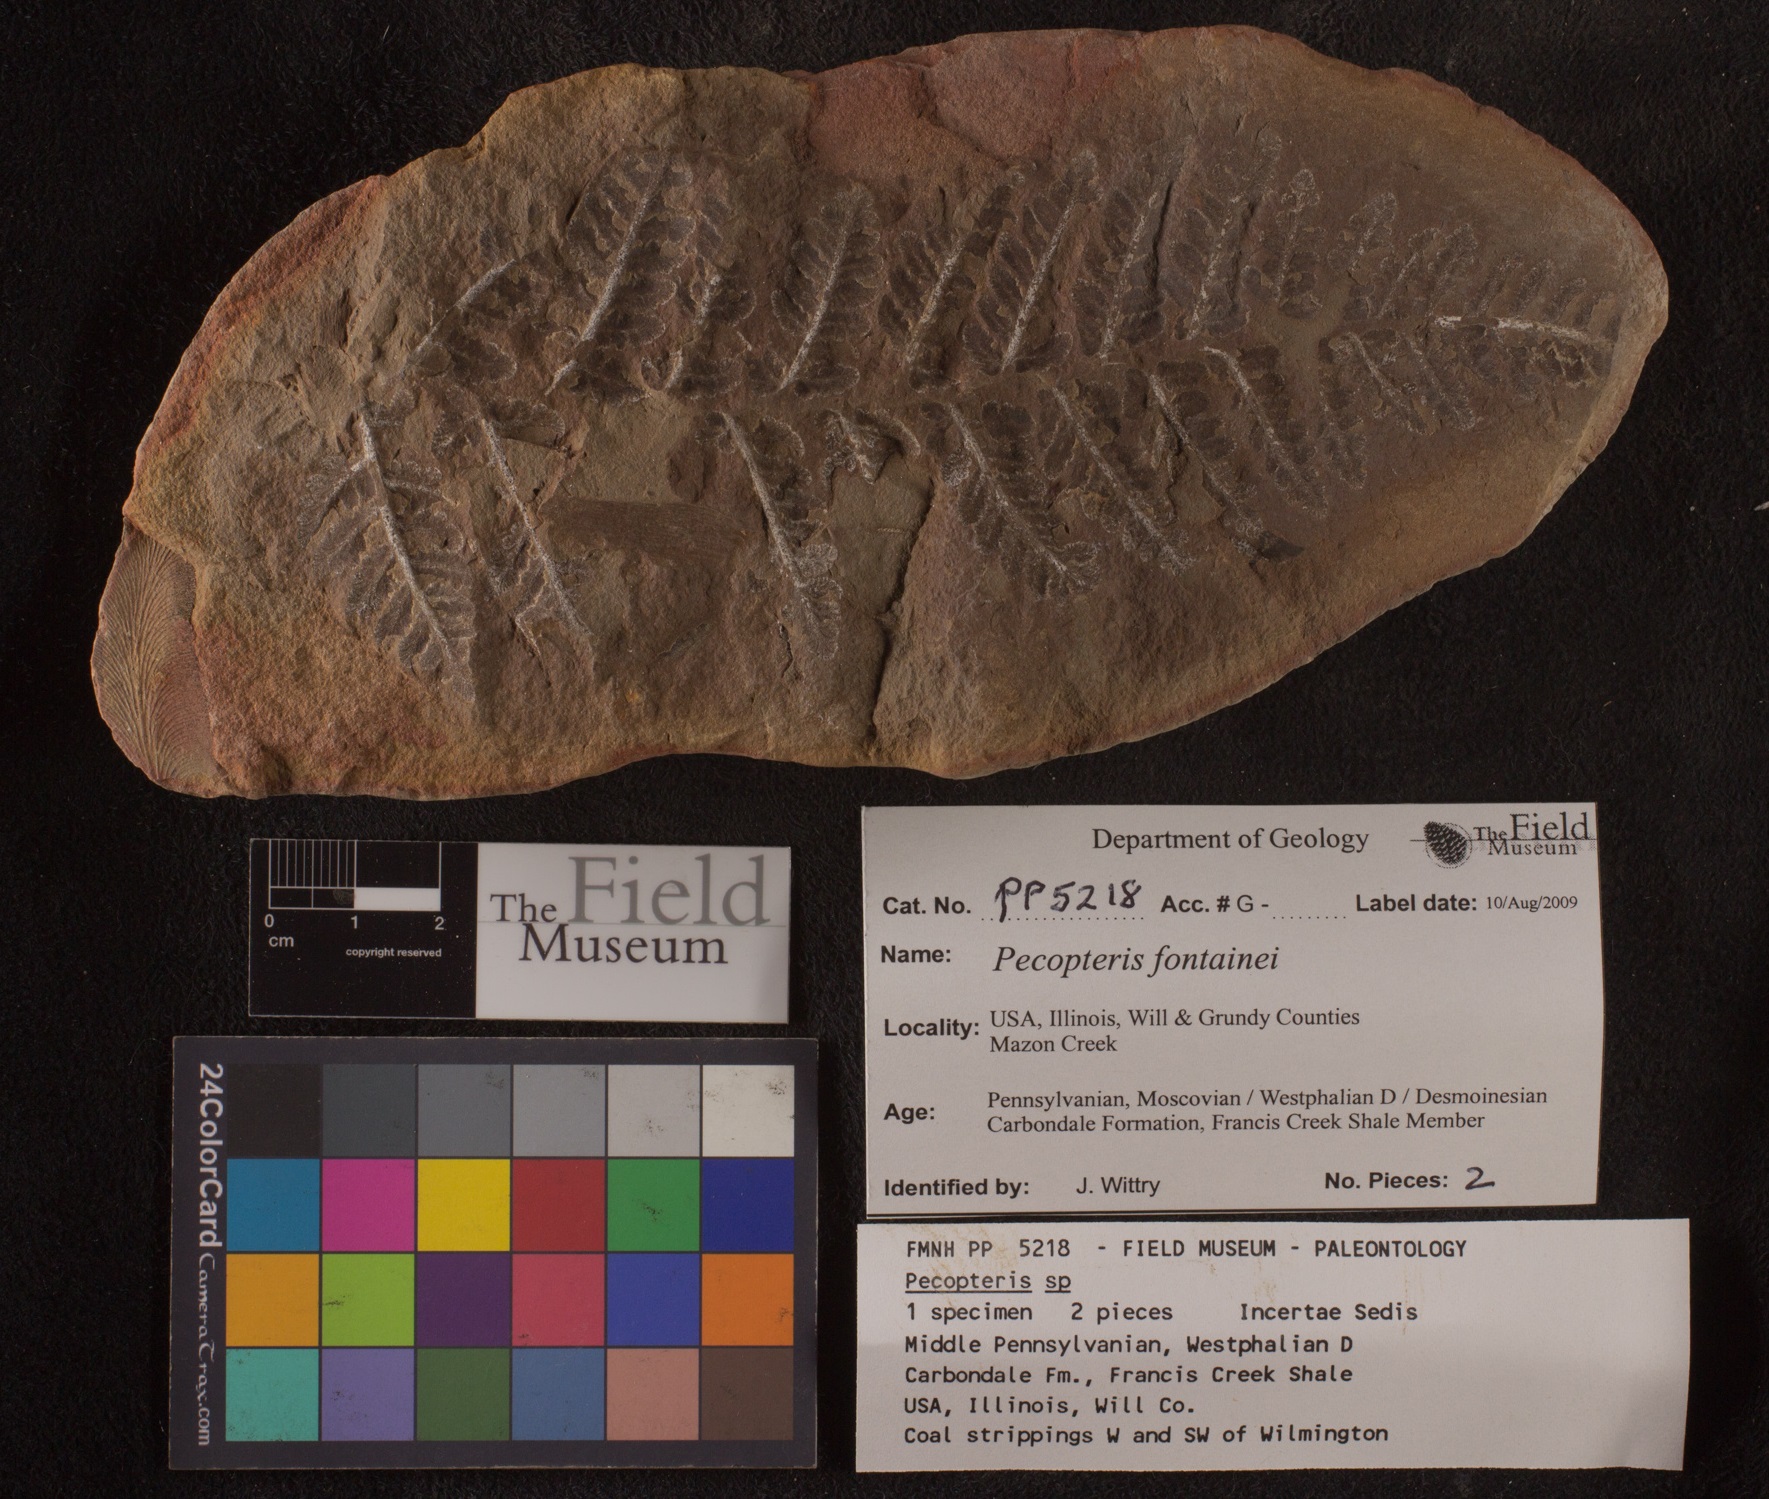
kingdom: Plantae
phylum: Tracheophyta
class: Polypodiopsida
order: Marattiales
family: Asterothecaceae
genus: Pecopteris
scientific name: Pecopteris
